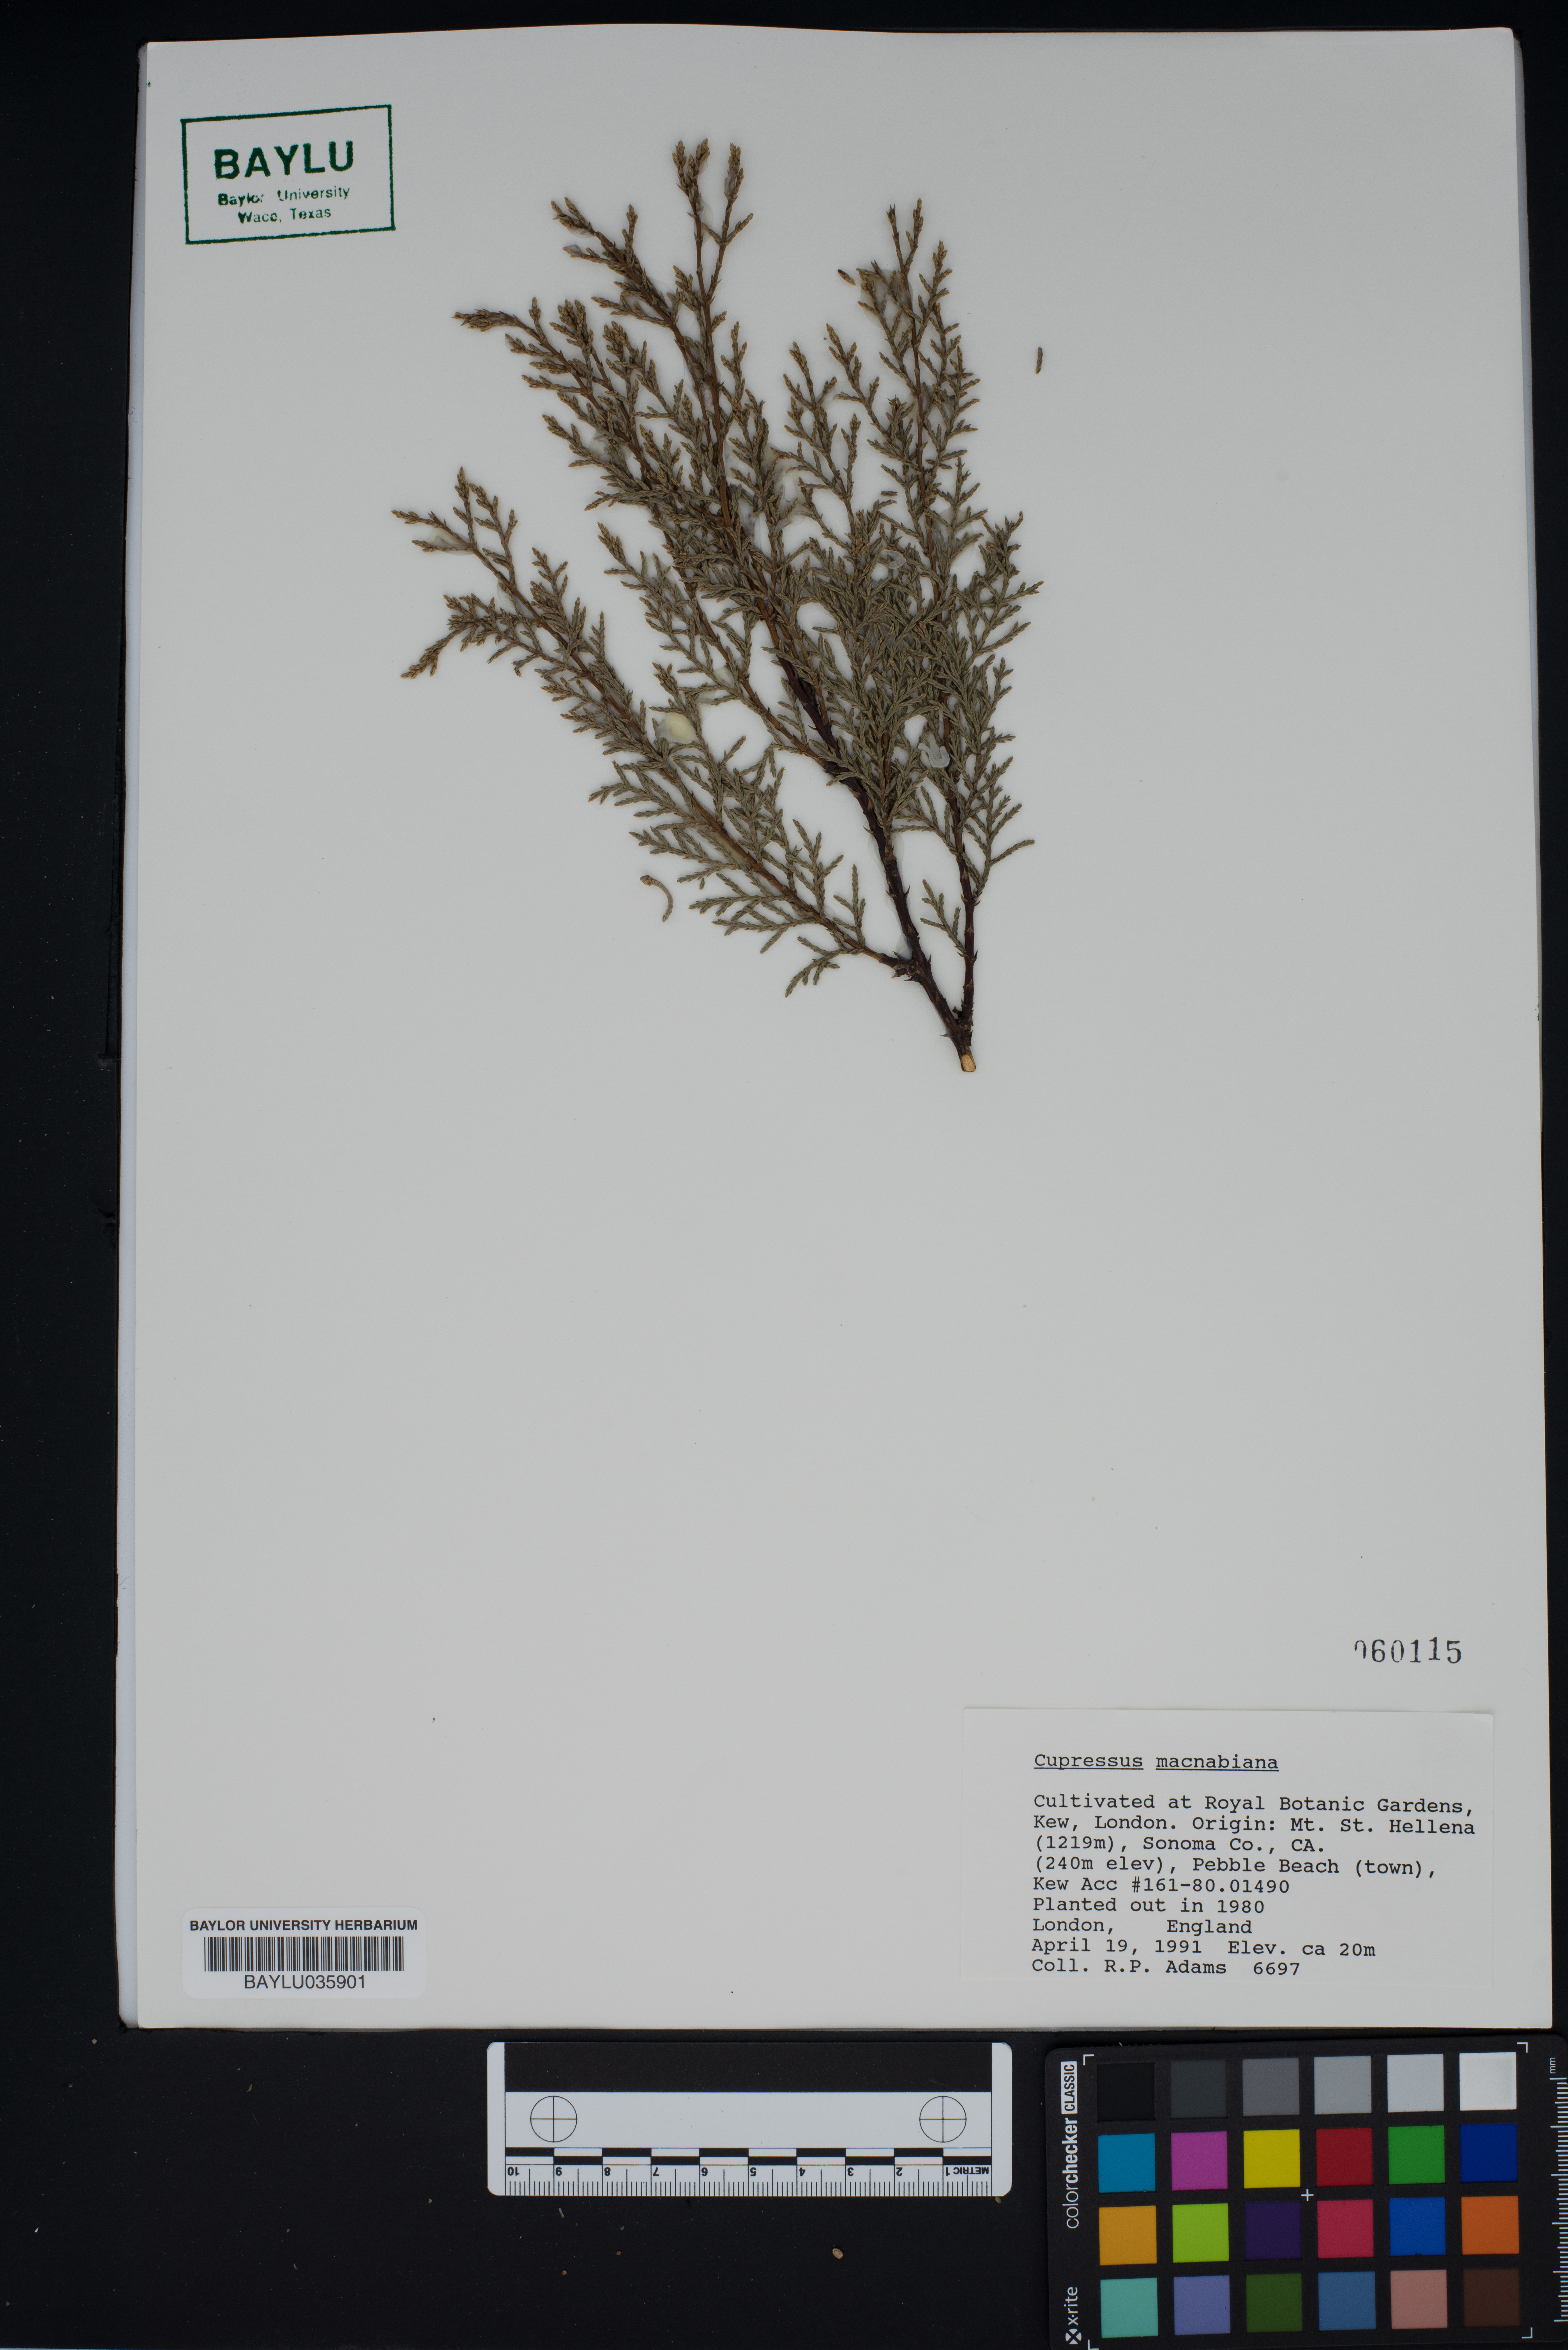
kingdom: Plantae
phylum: Tracheophyta
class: Pinopsida
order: Pinales
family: Cupressaceae
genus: Cupressus
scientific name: Cupressus macnabiana bis
